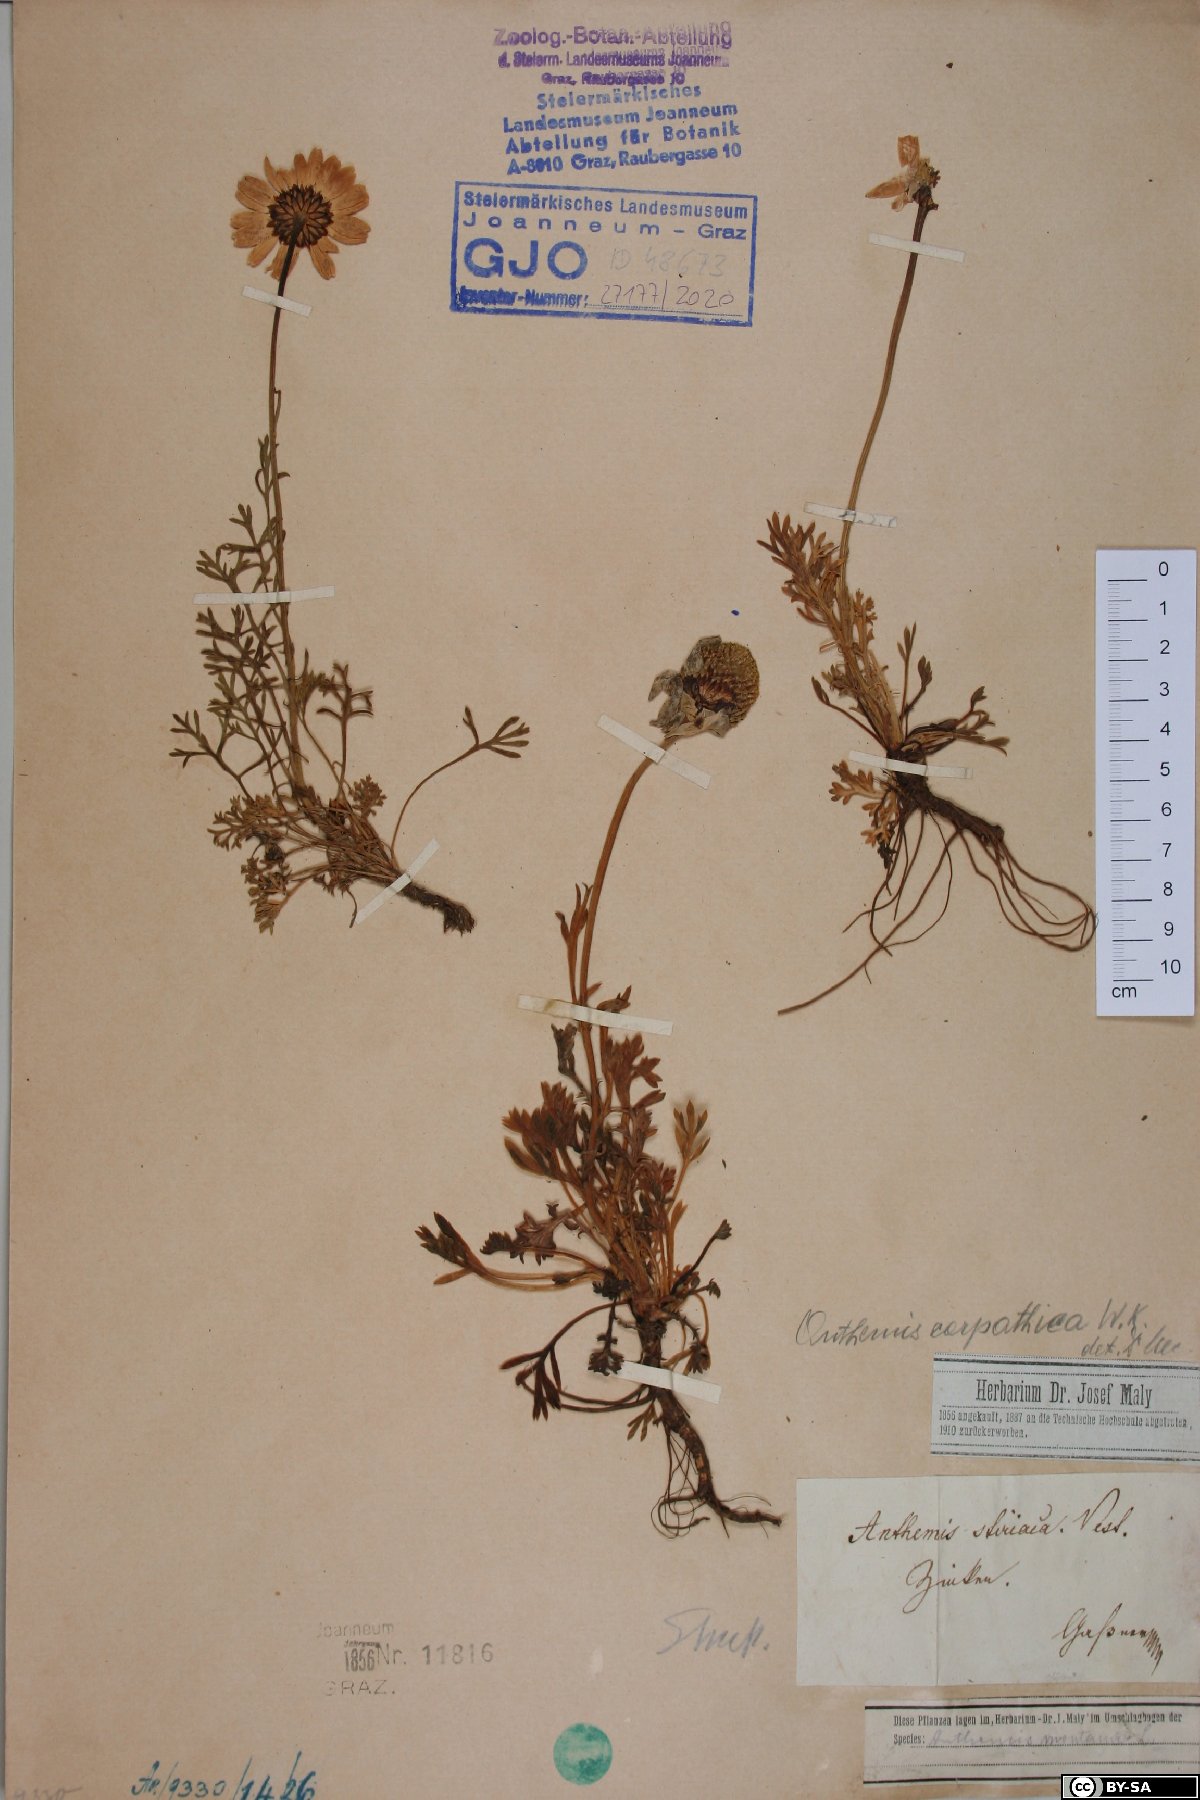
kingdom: Plantae
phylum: Tracheophyta
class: Magnoliopsida
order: Asterales
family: Asteraceae
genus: Anthemis
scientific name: Anthemis cretica
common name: Mountain dog-daisy
